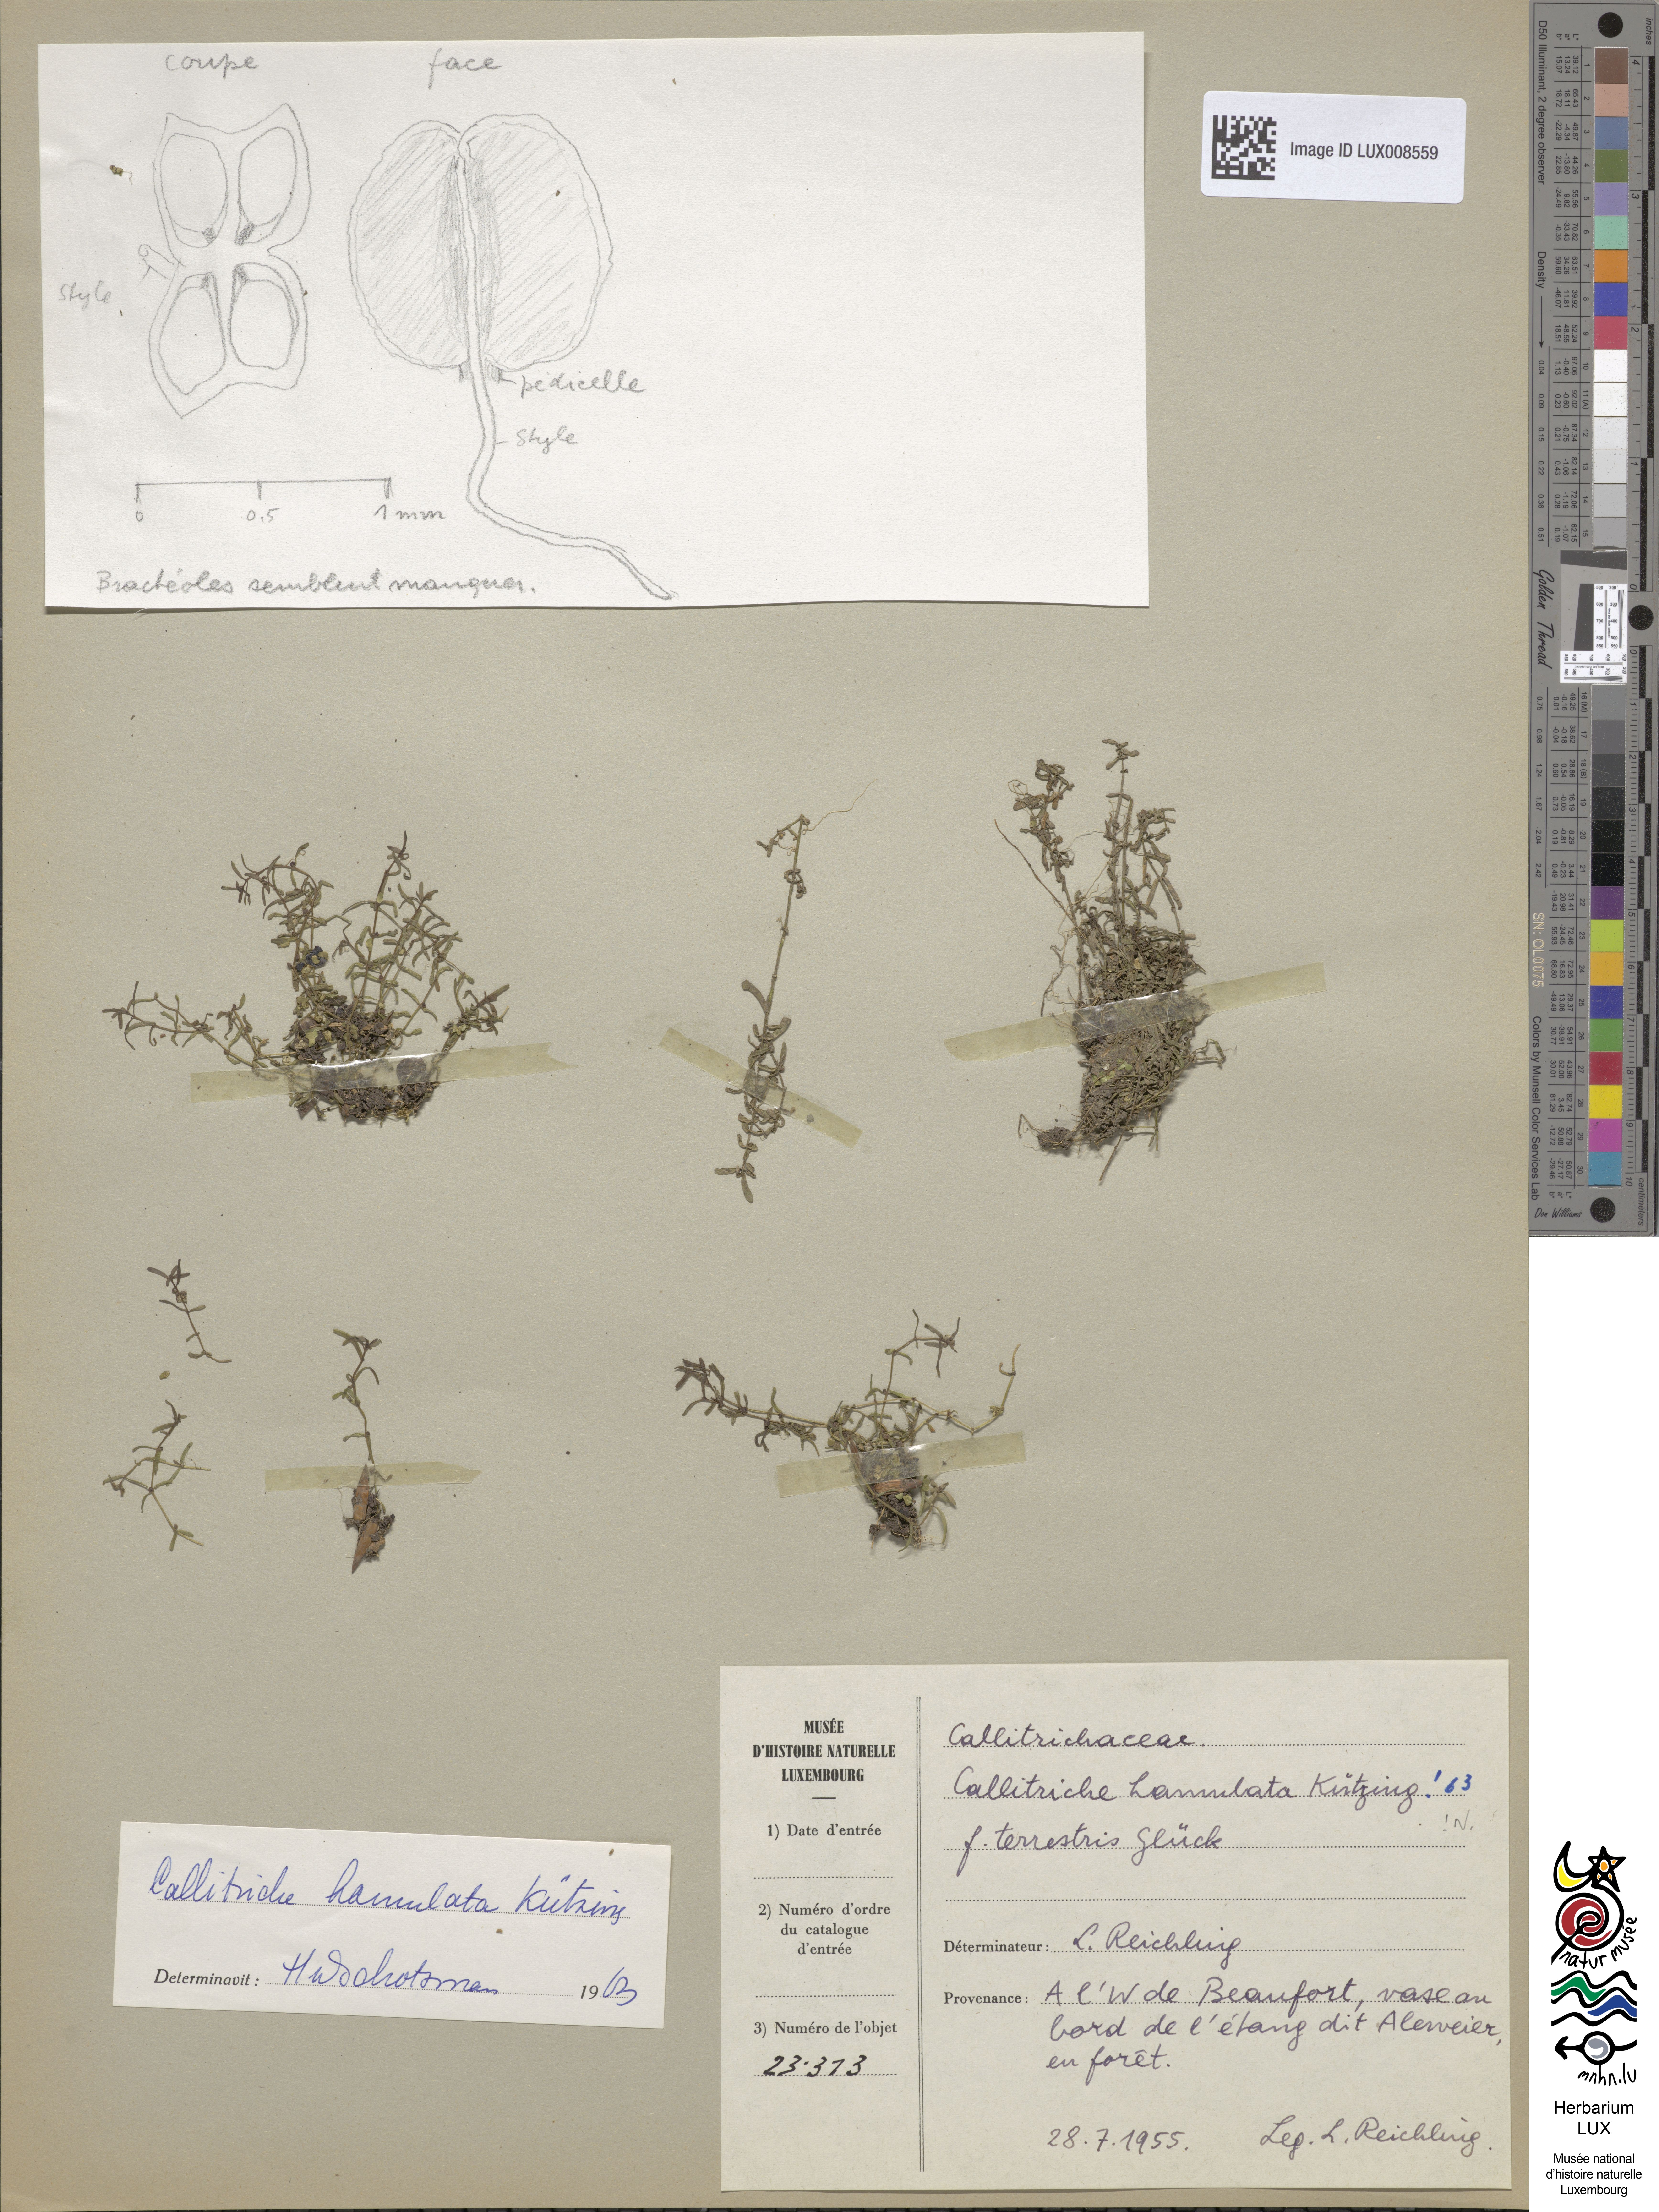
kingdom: Plantae
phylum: Tracheophyta
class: Magnoliopsida
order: Lamiales
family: Plantaginaceae
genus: Callitriche
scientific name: Callitriche hamulata
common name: Intermediate water-starwort
